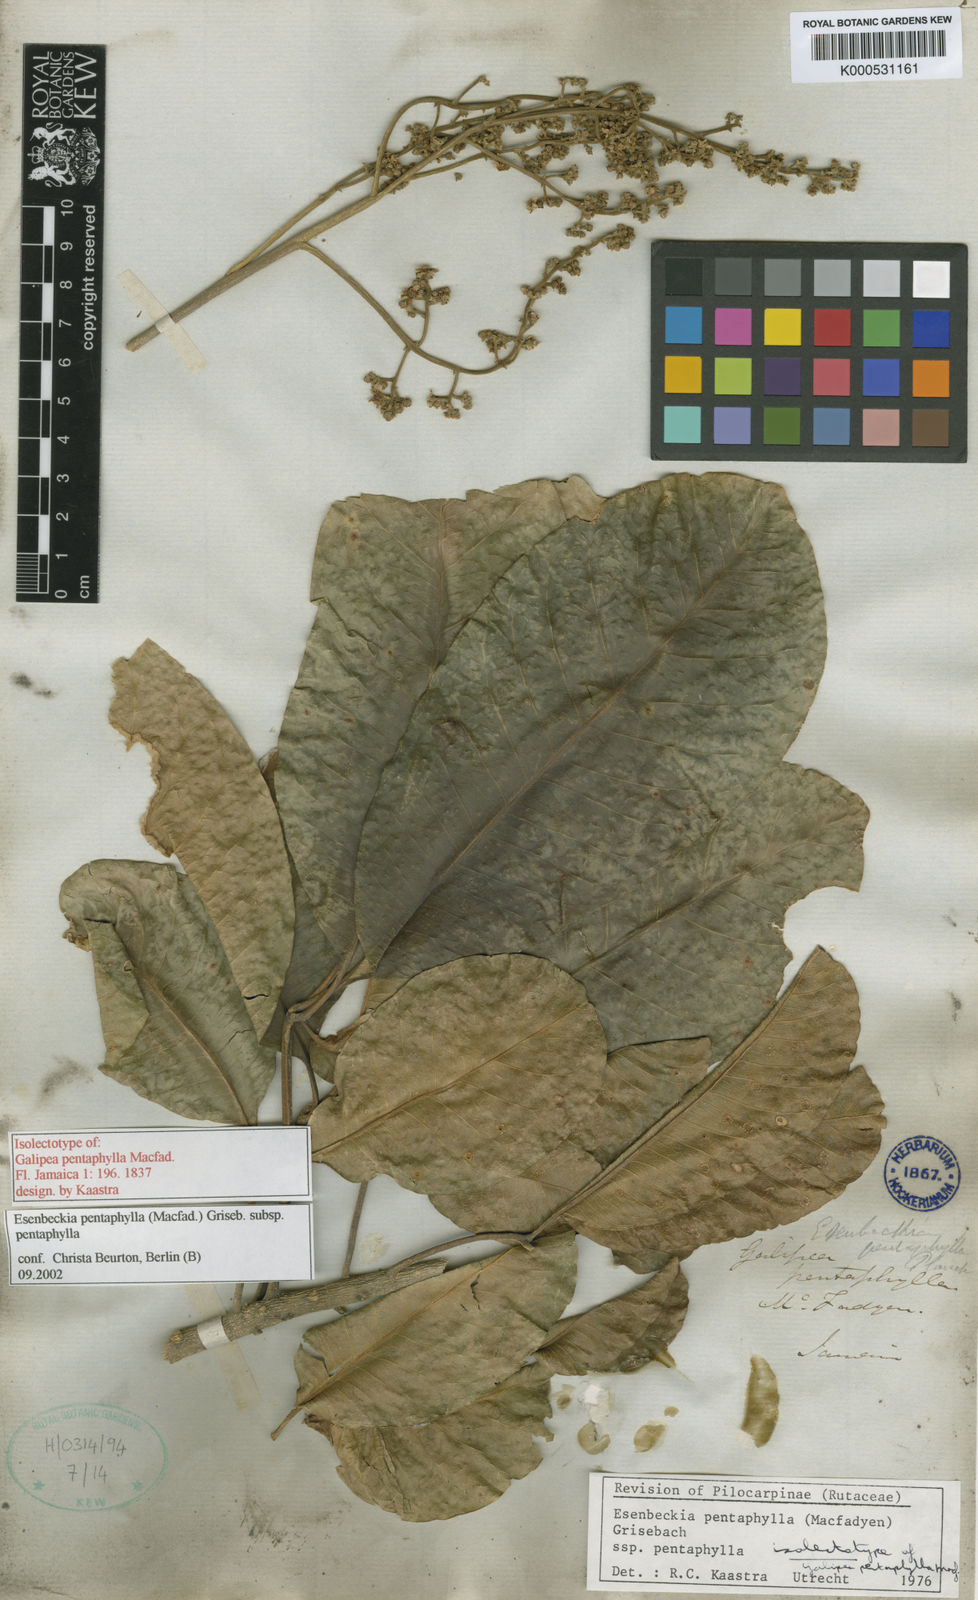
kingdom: Plantae
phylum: Tracheophyta
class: Magnoliopsida
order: Sapindales
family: Rutaceae
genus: Esenbeckia
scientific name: Esenbeckia
